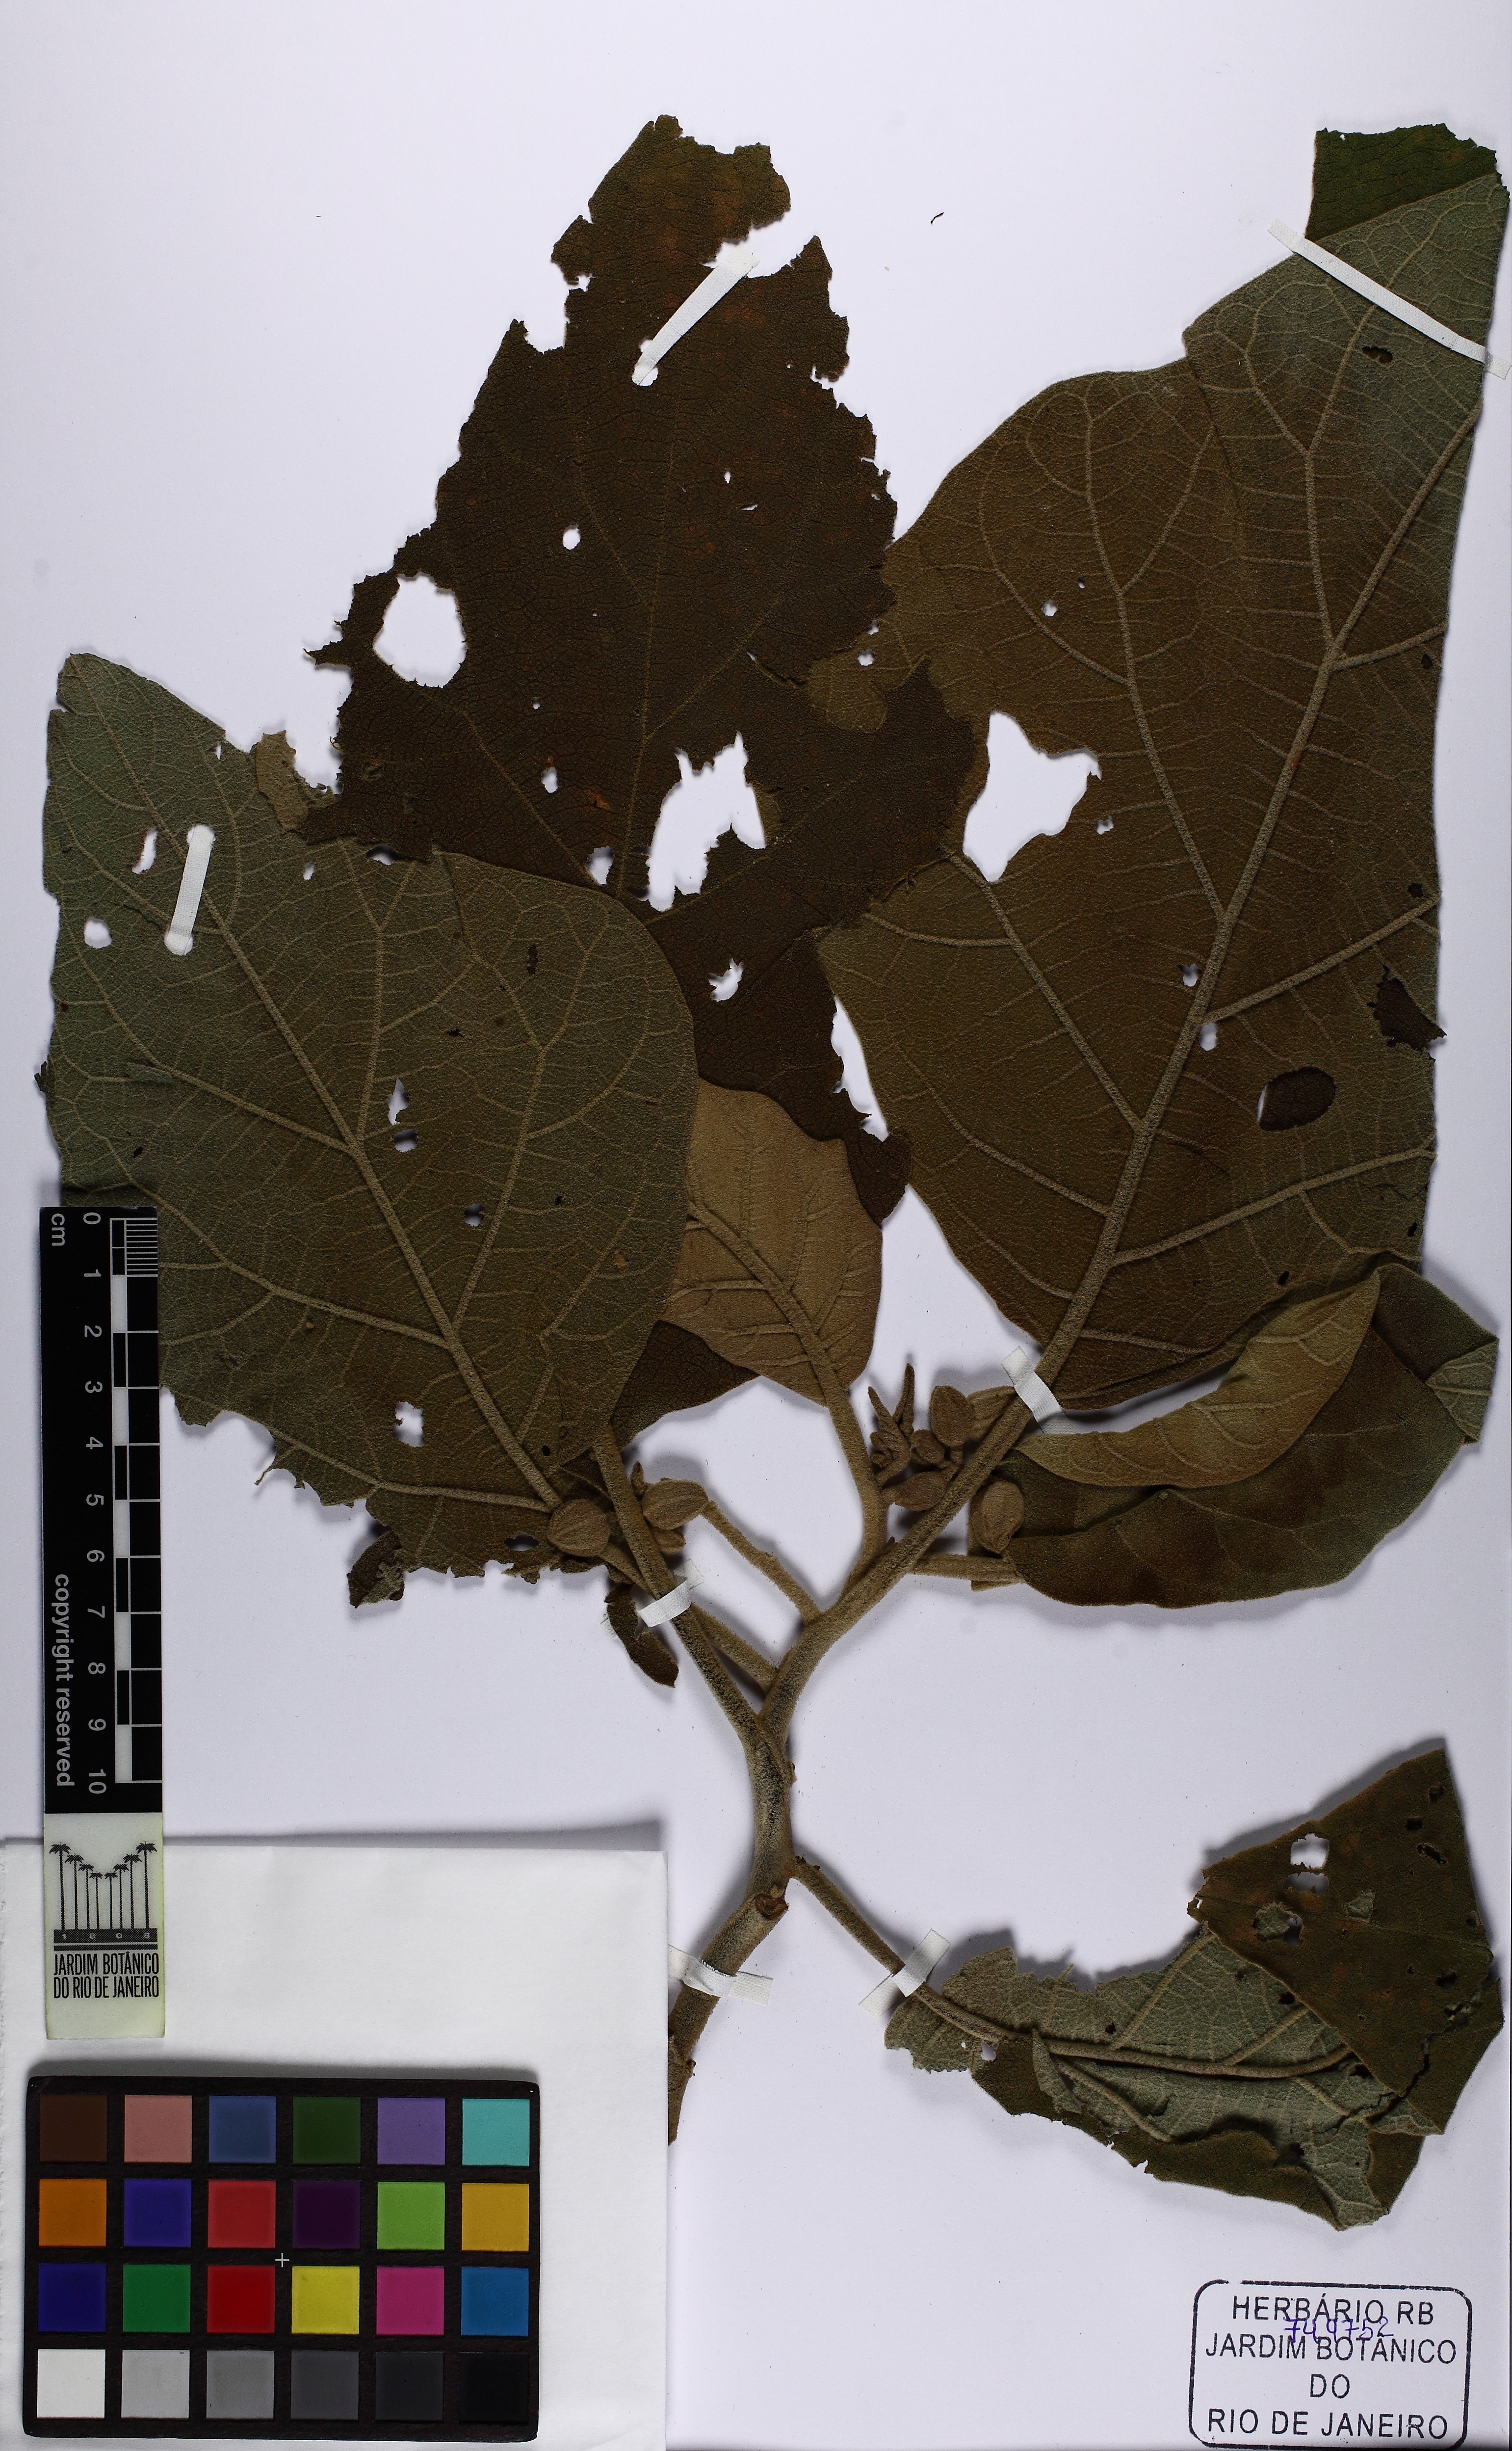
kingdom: Plantae
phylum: Tracheophyta
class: Magnoliopsida
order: Solanales
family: Solanaceae
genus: Solanum
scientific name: Solanum rugosum
